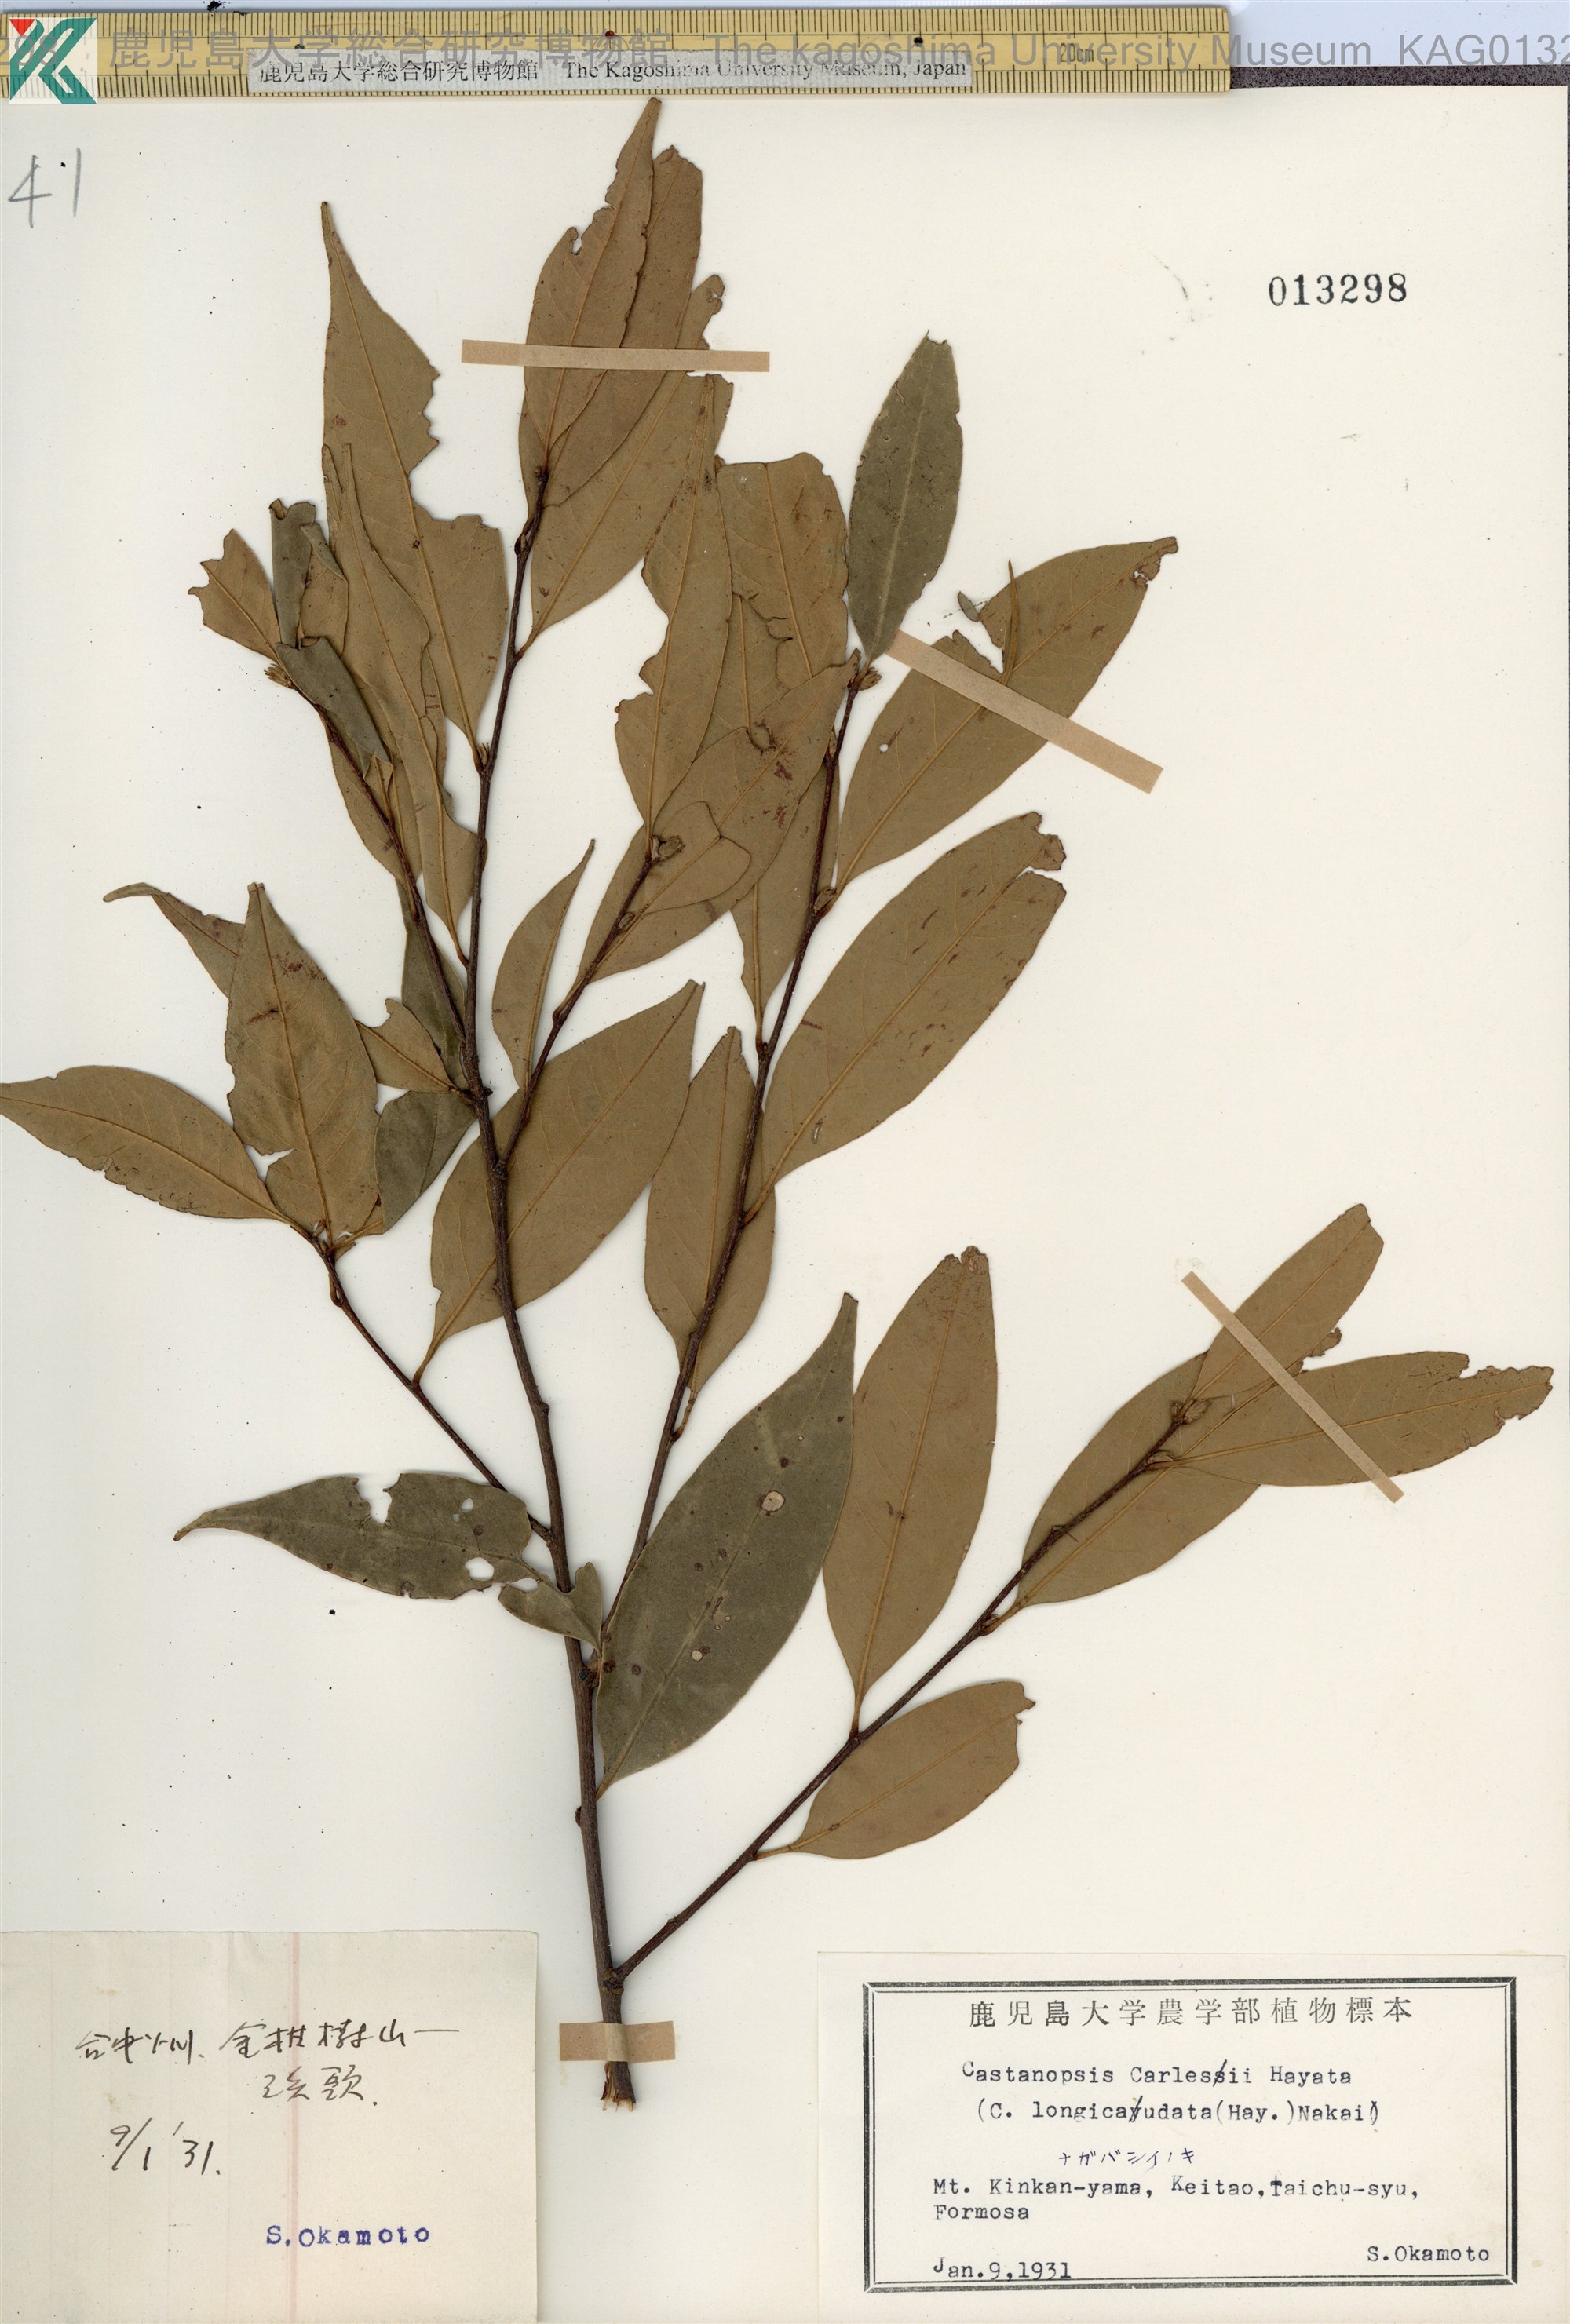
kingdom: Plantae
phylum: Tracheophyta
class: Magnoliopsida
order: Fagales
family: Fagaceae
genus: Castanopsis
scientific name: Castanopsis carlesii
